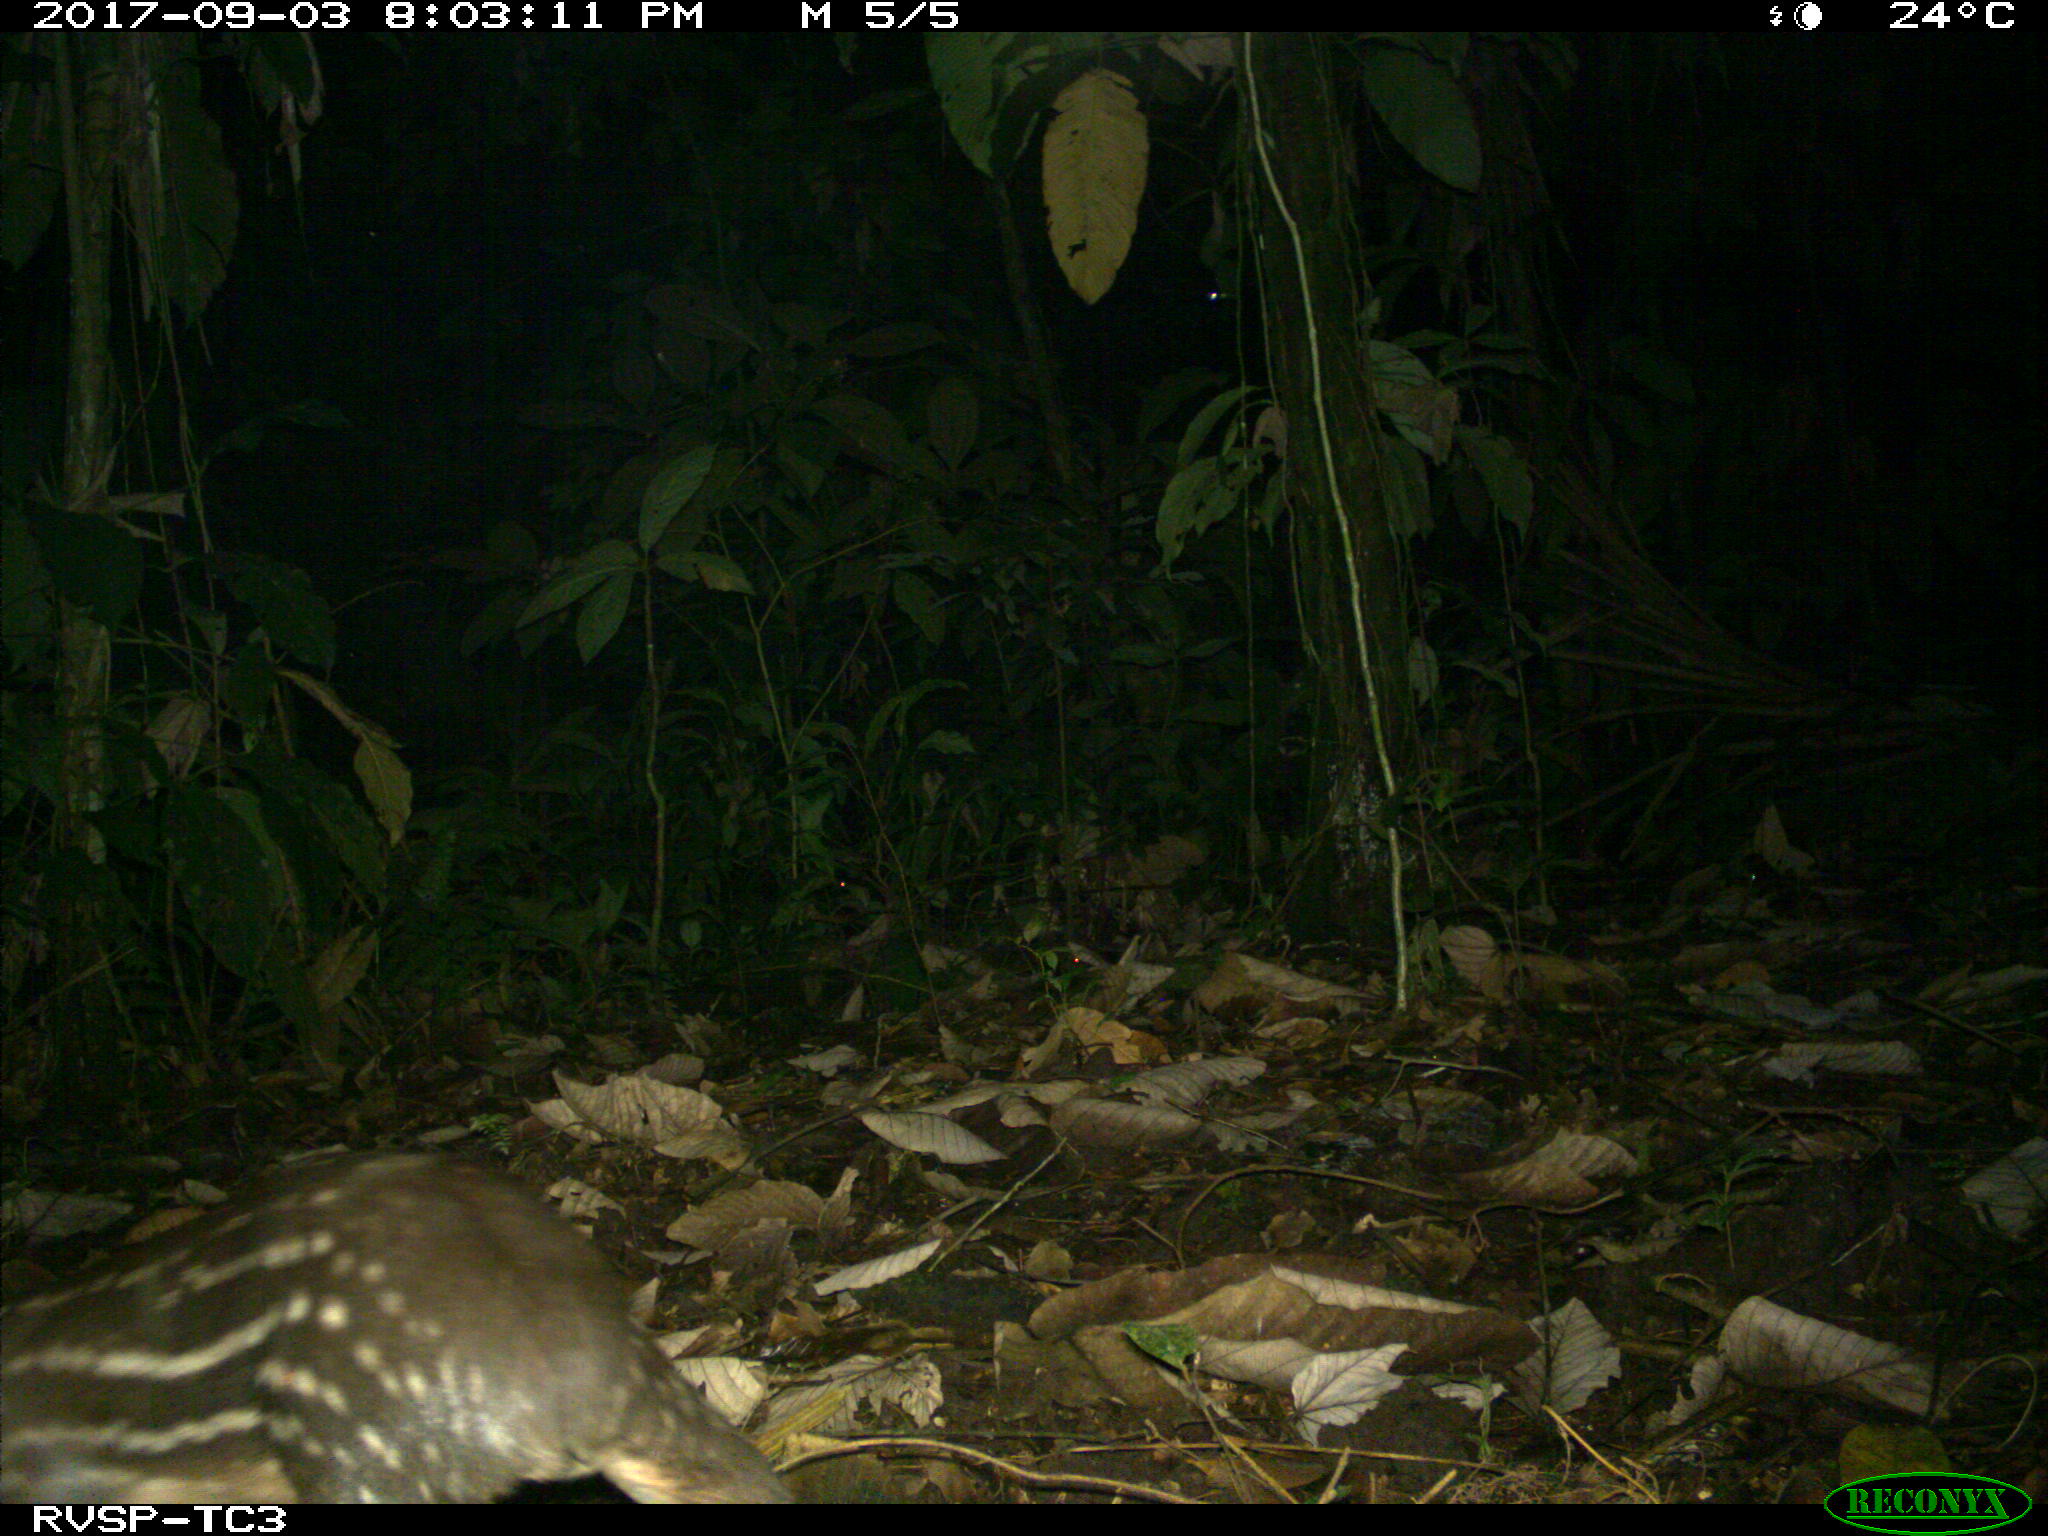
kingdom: Animalia
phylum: Chordata
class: Mammalia
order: Rodentia
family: Cuniculidae
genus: Cuniculus
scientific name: Cuniculus paca
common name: Lowland paca
